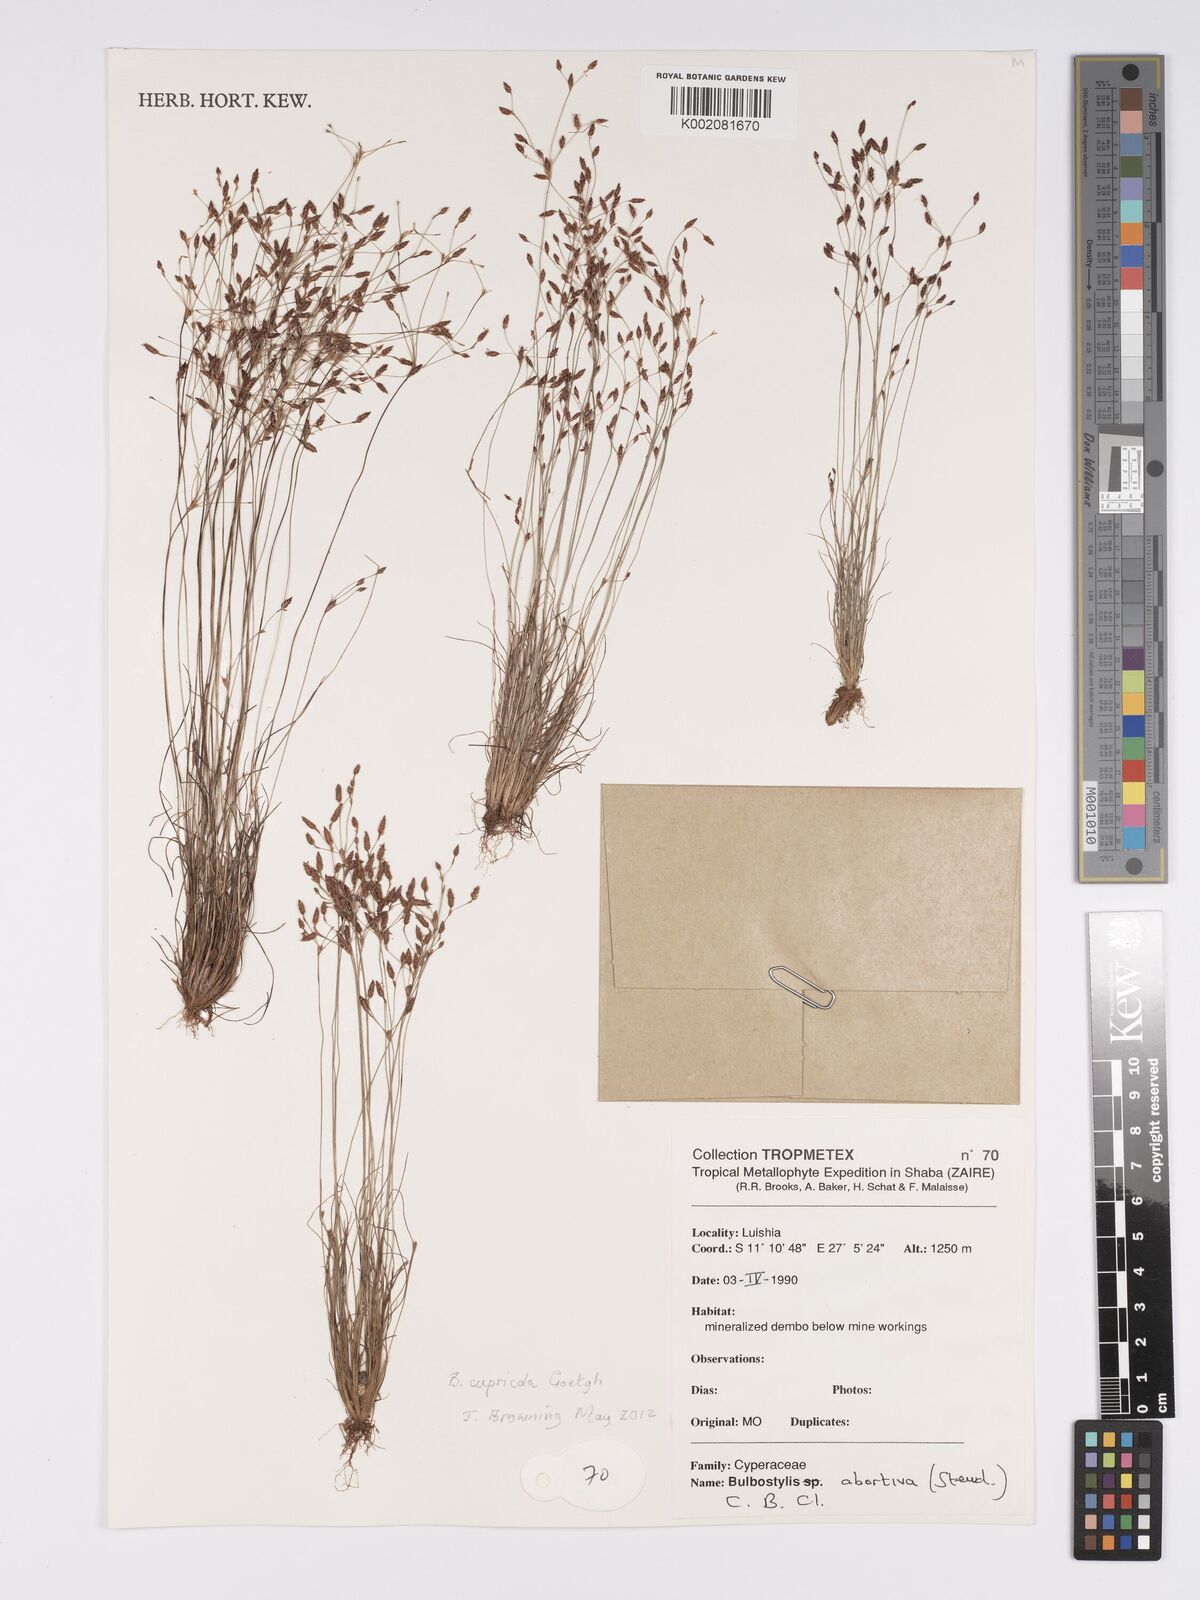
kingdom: Plantae
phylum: Tracheophyta
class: Liliopsida
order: Poales
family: Cyperaceae
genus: Bulbostylis
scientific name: Bulbostylis abortiva
